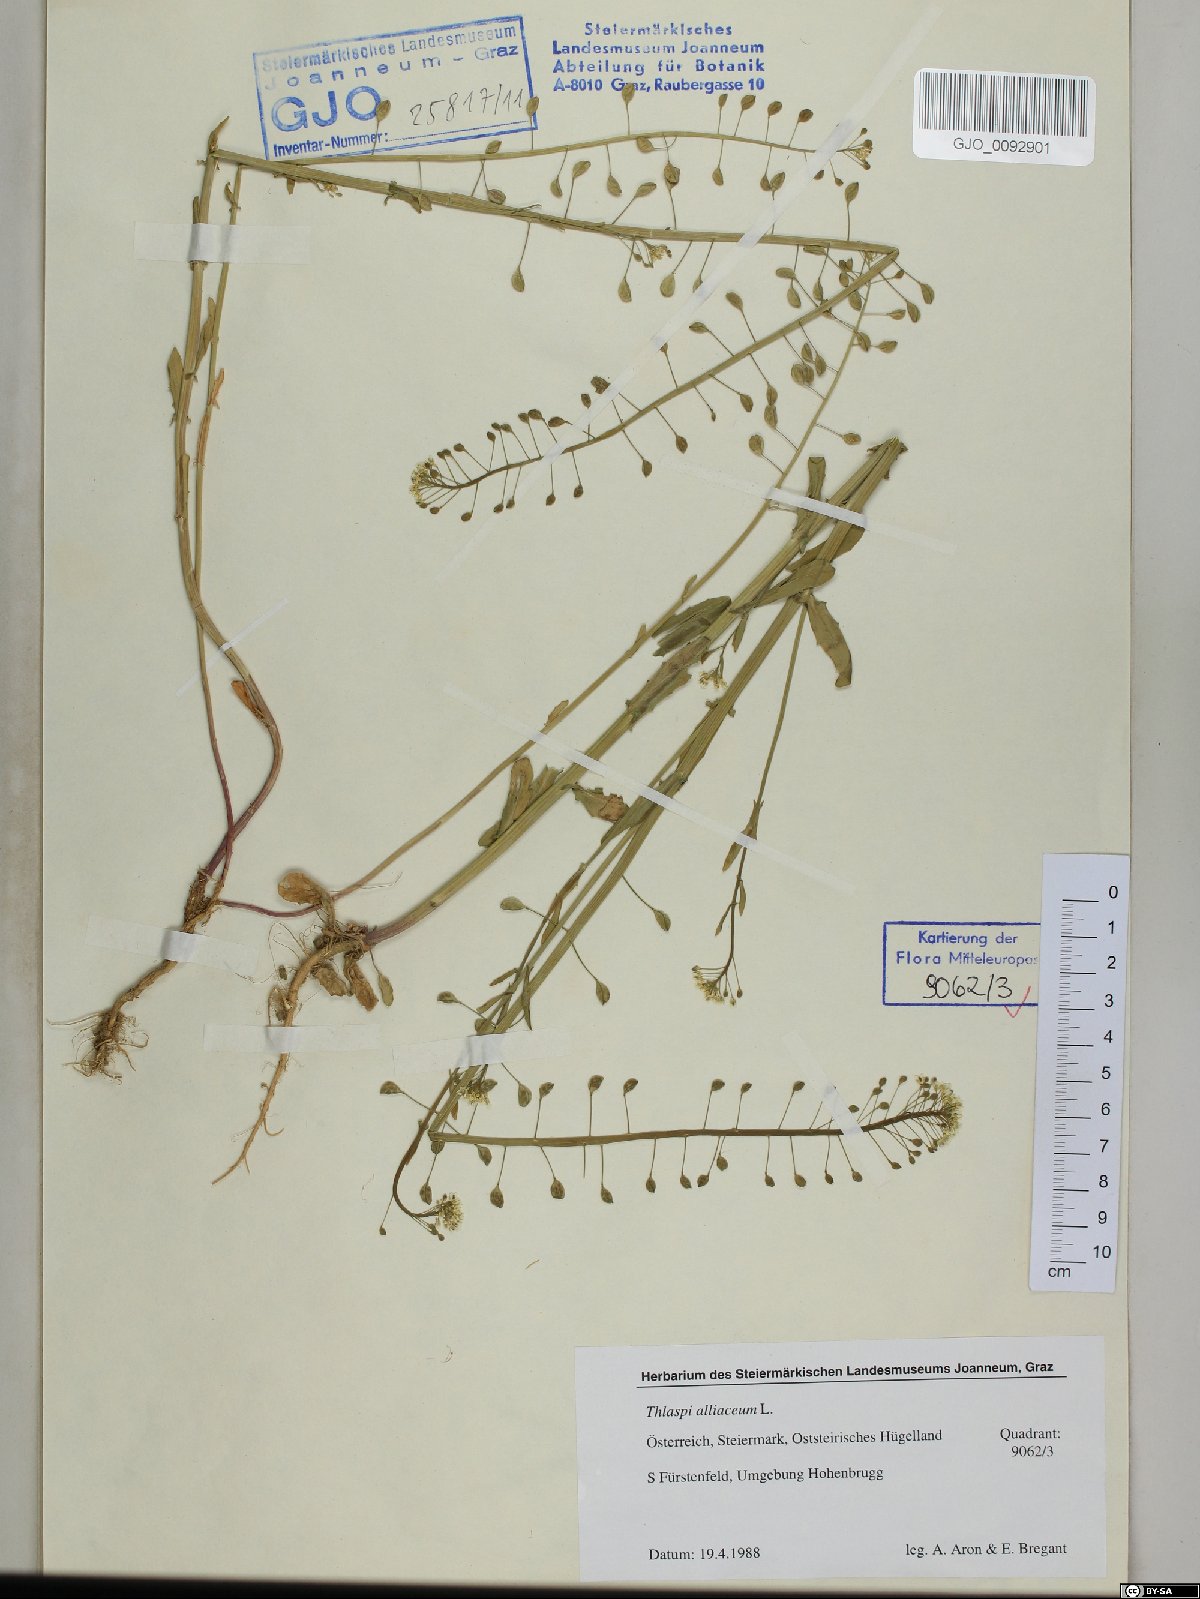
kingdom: Plantae
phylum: Tracheophyta
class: Magnoliopsida
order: Brassicales
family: Brassicaceae
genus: Mummenhoffia
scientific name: Mummenhoffia alliacea
